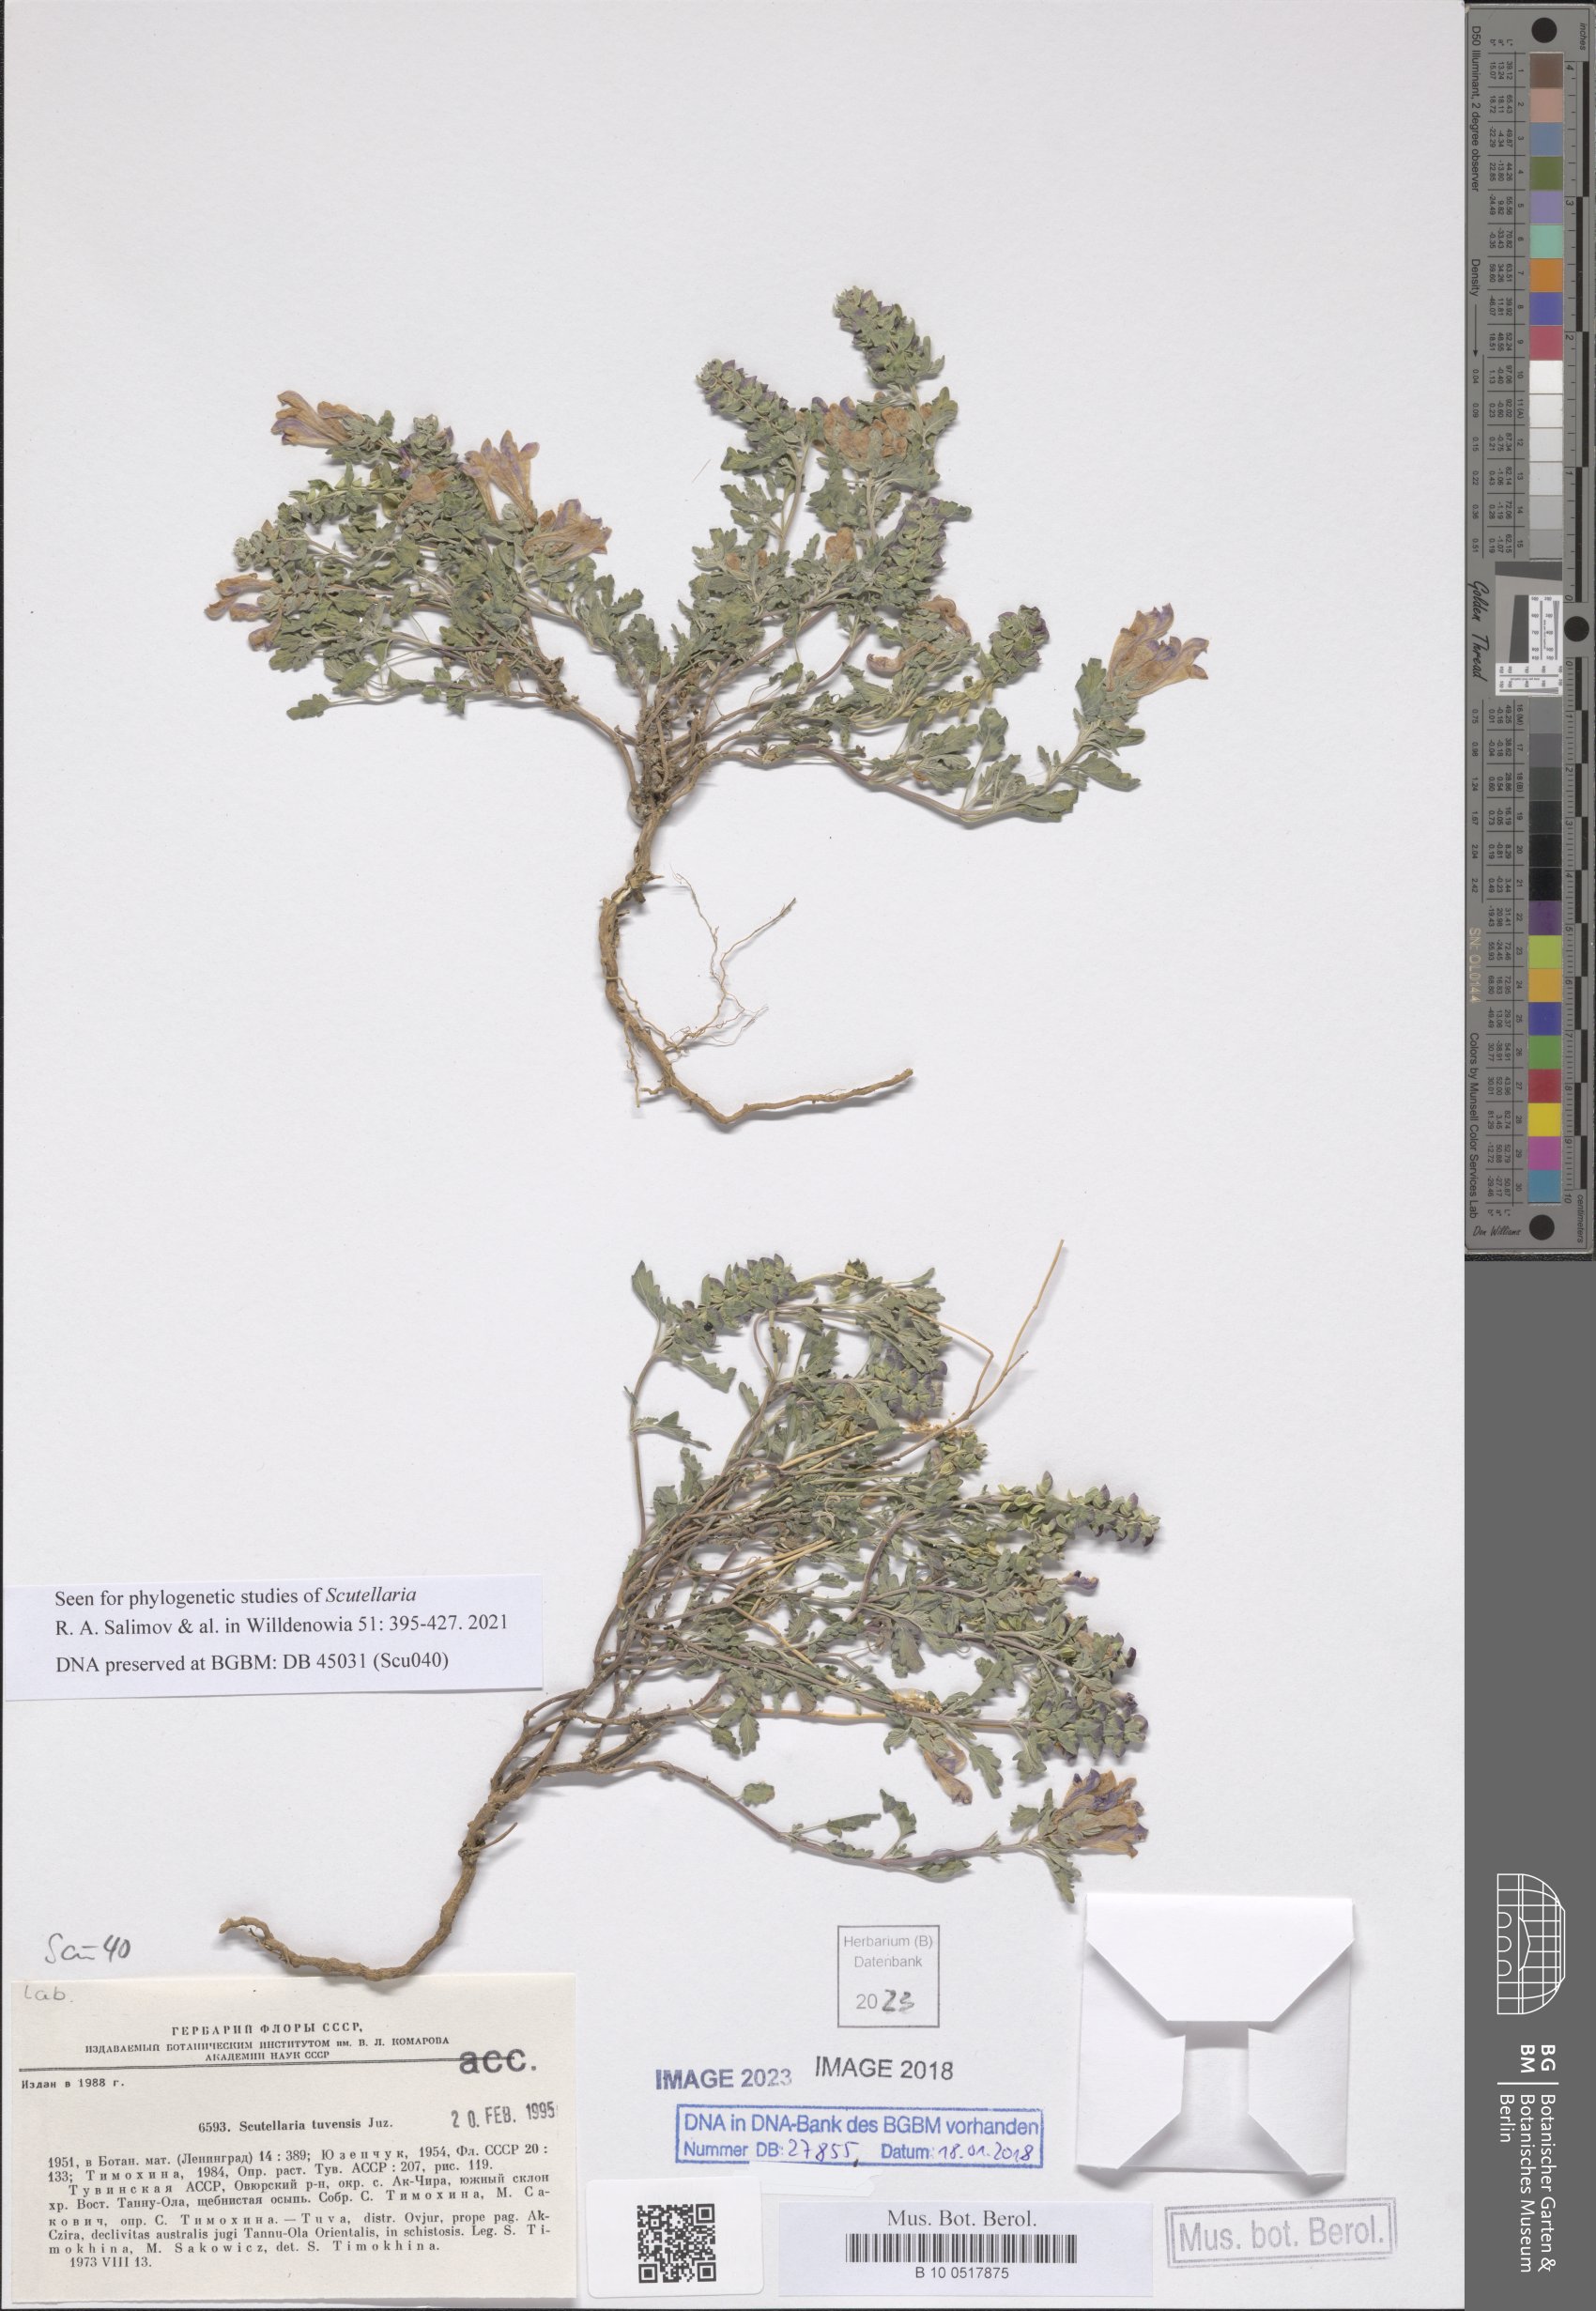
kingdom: Plantae
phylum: Tracheophyta
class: Magnoliopsida
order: Lamiales
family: Lamiaceae
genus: Scutellaria
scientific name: Scutellaria tuvensis
